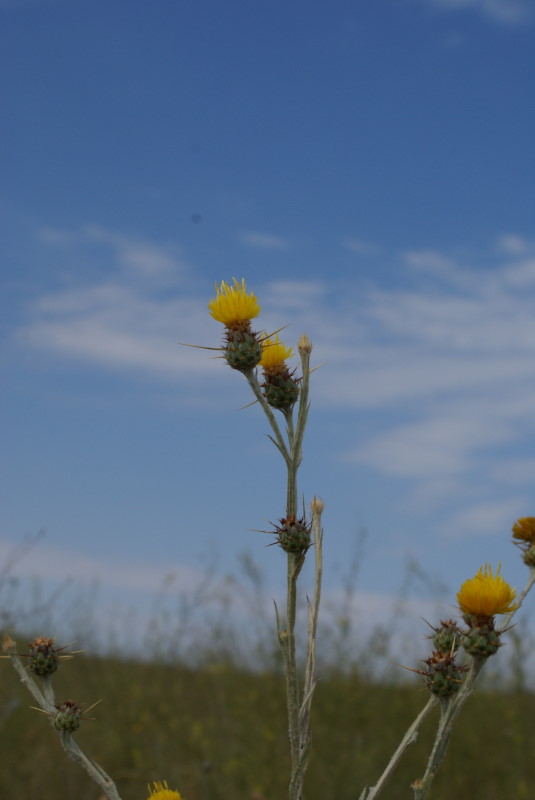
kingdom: Plantae
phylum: Tracheophyta
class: Magnoliopsida
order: Asterales
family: Asteraceae
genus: Centaurea
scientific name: Centaurea solstitialis
